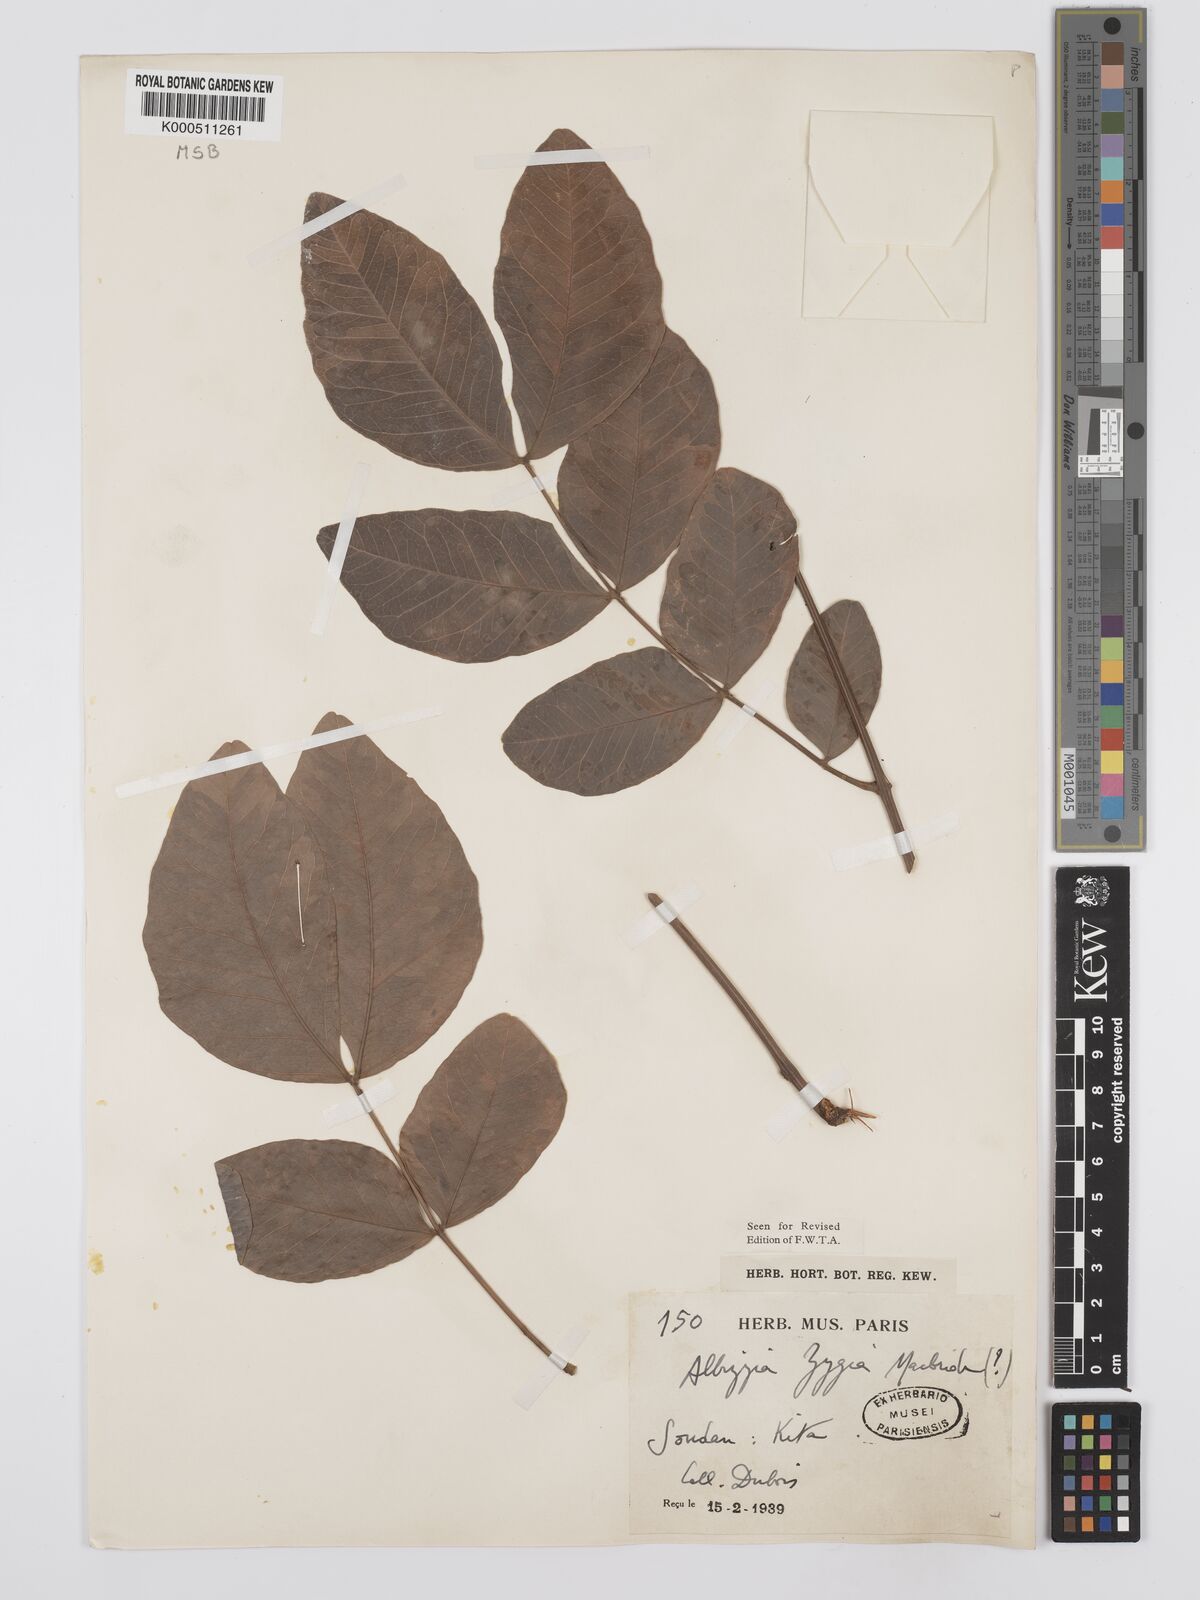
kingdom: Plantae
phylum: Tracheophyta
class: Magnoliopsida
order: Fabales
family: Fabaceae
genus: Albizia
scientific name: Albizia zygia
